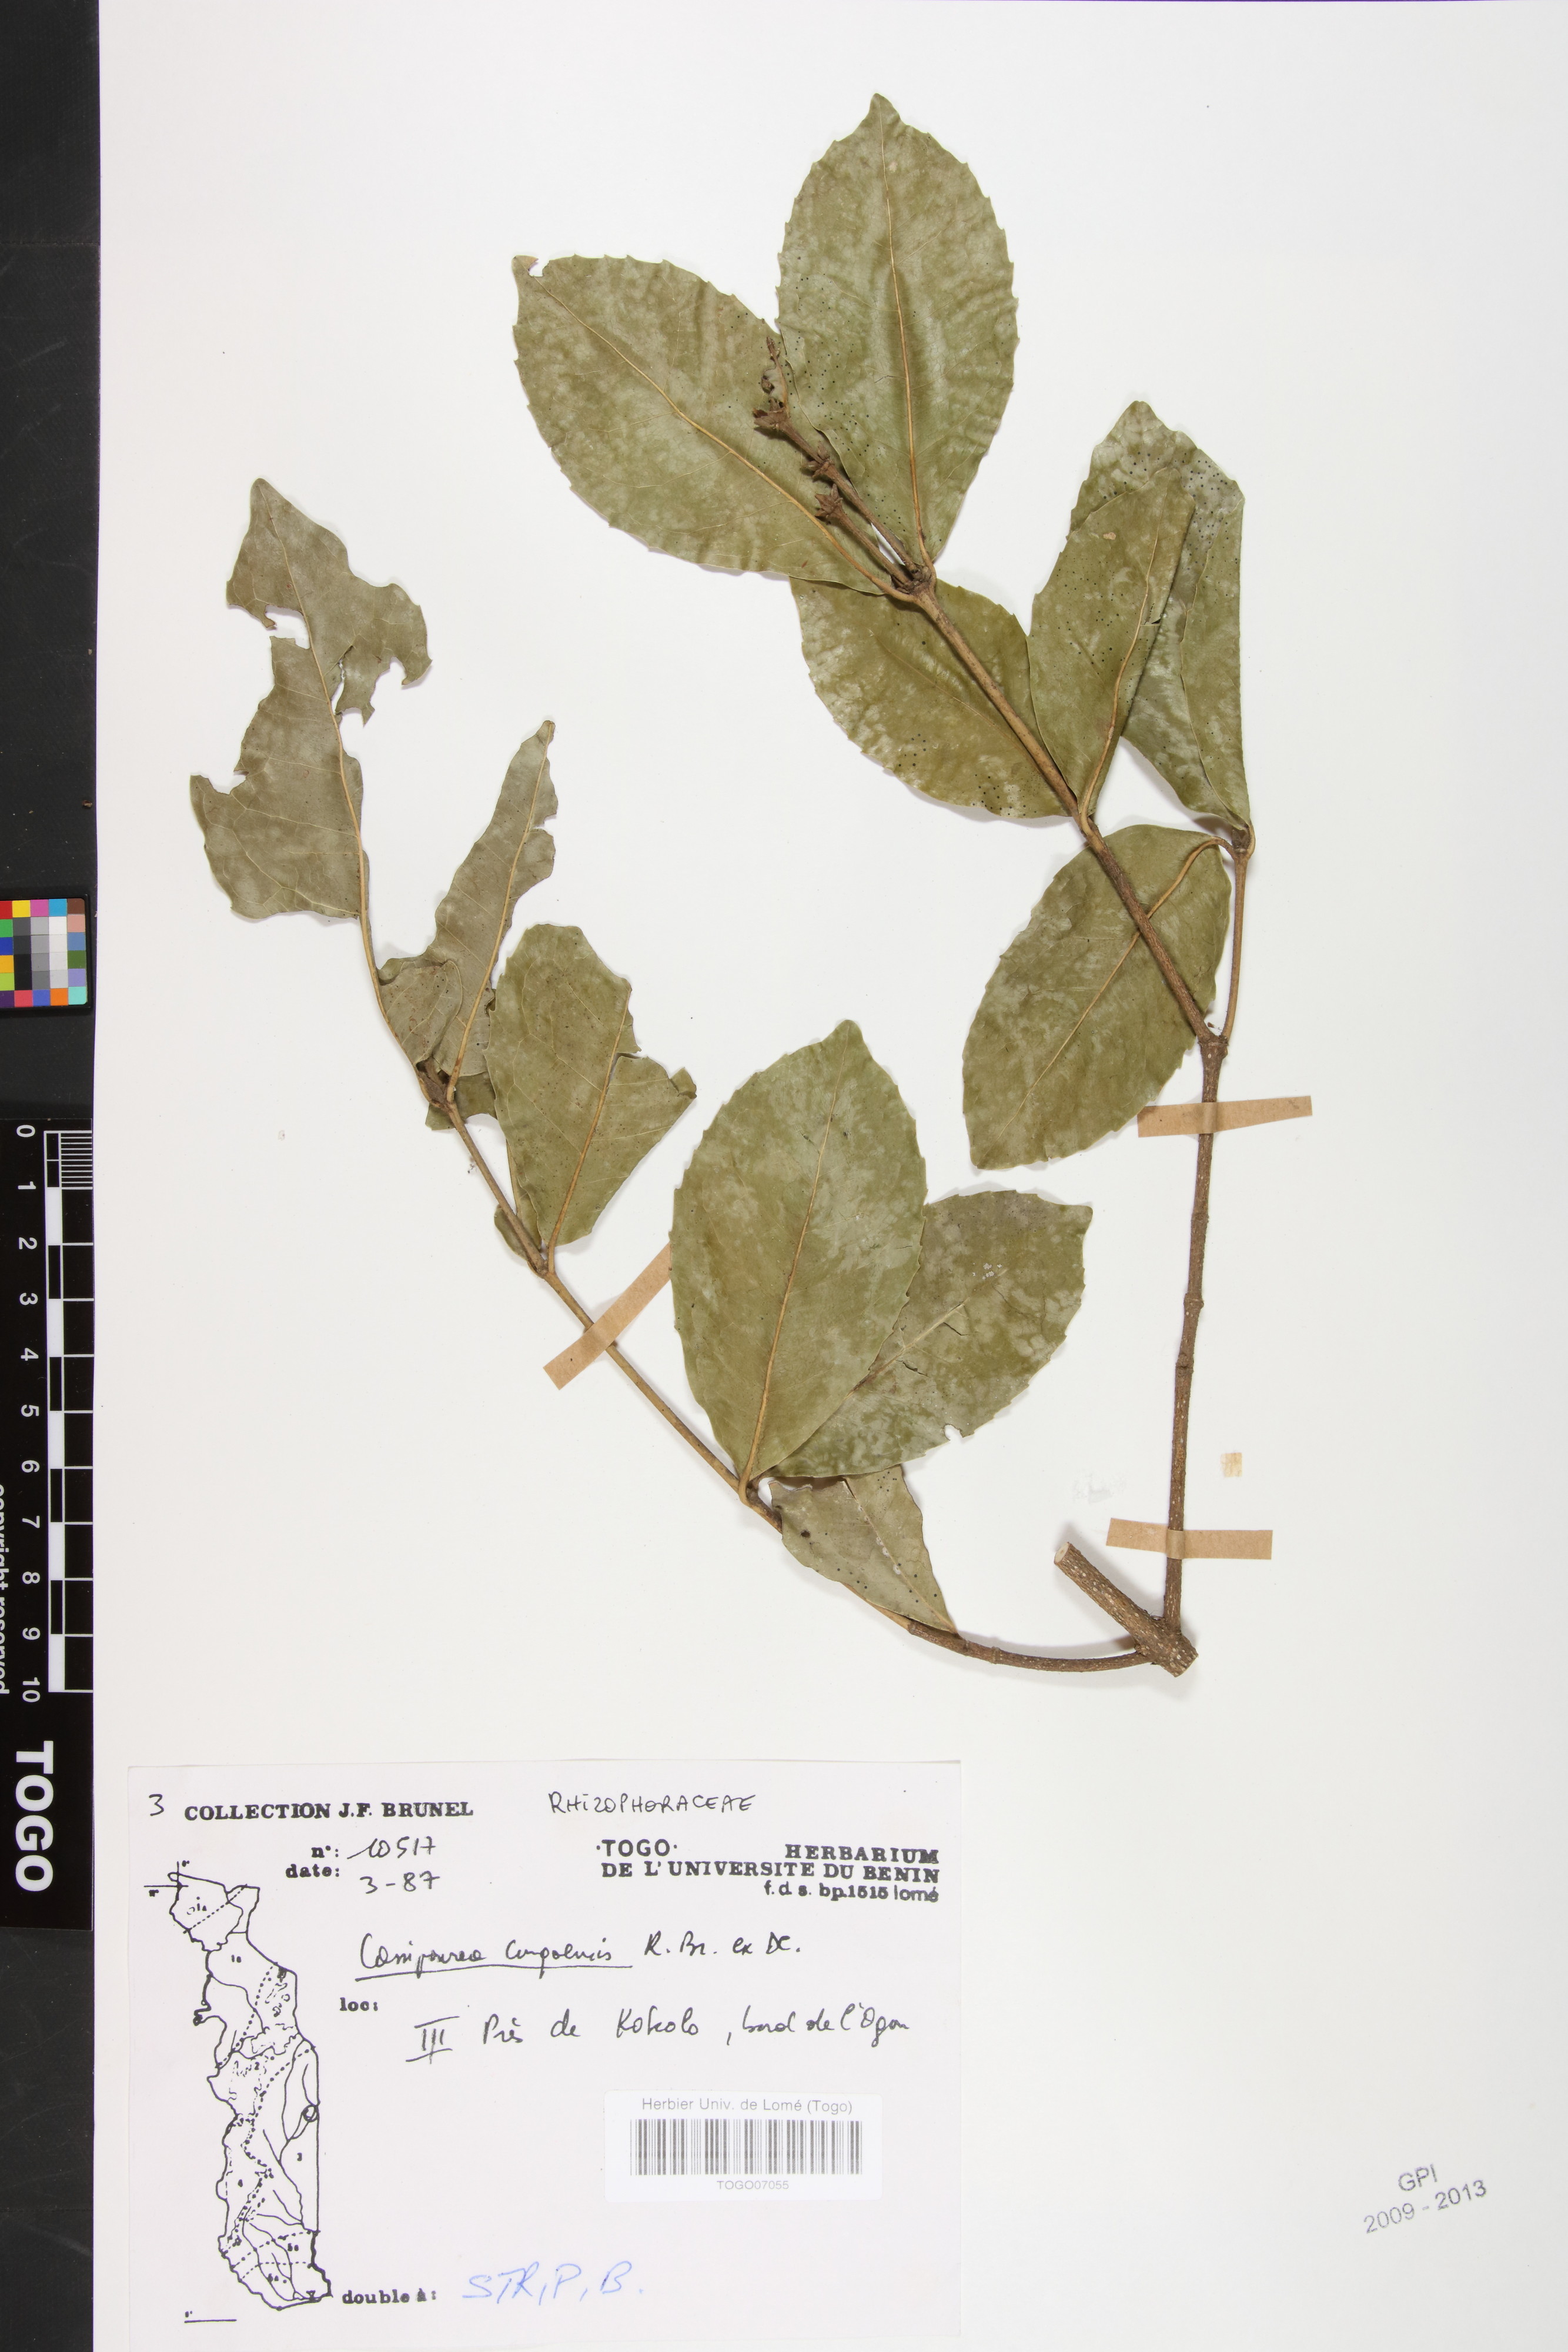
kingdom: Plantae
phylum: Tracheophyta
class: Magnoliopsida
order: Malpighiales
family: Rhizophoraceae
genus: Cassipourea
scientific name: Cassipourea congoensis
